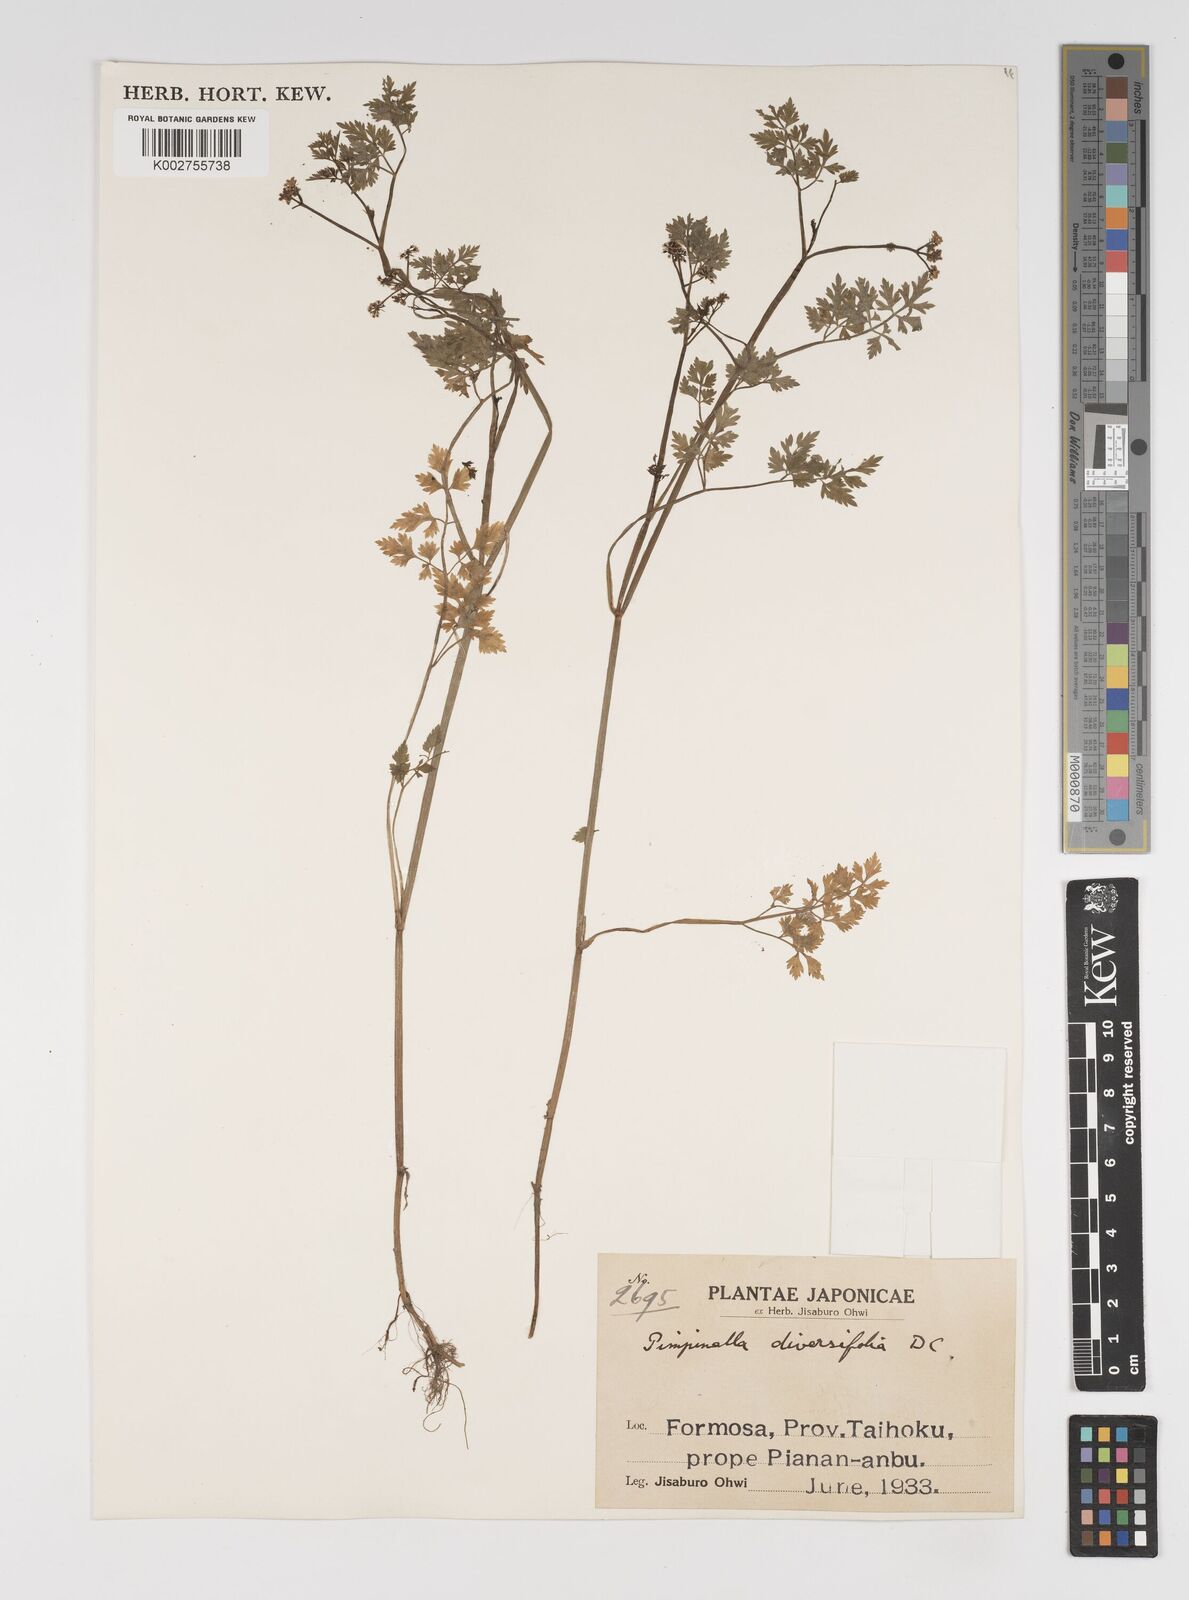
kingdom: Plantae
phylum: Tracheophyta
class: Magnoliopsida
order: Apiales
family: Apiaceae
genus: Pimpinella
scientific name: Pimpinella diversifolia
